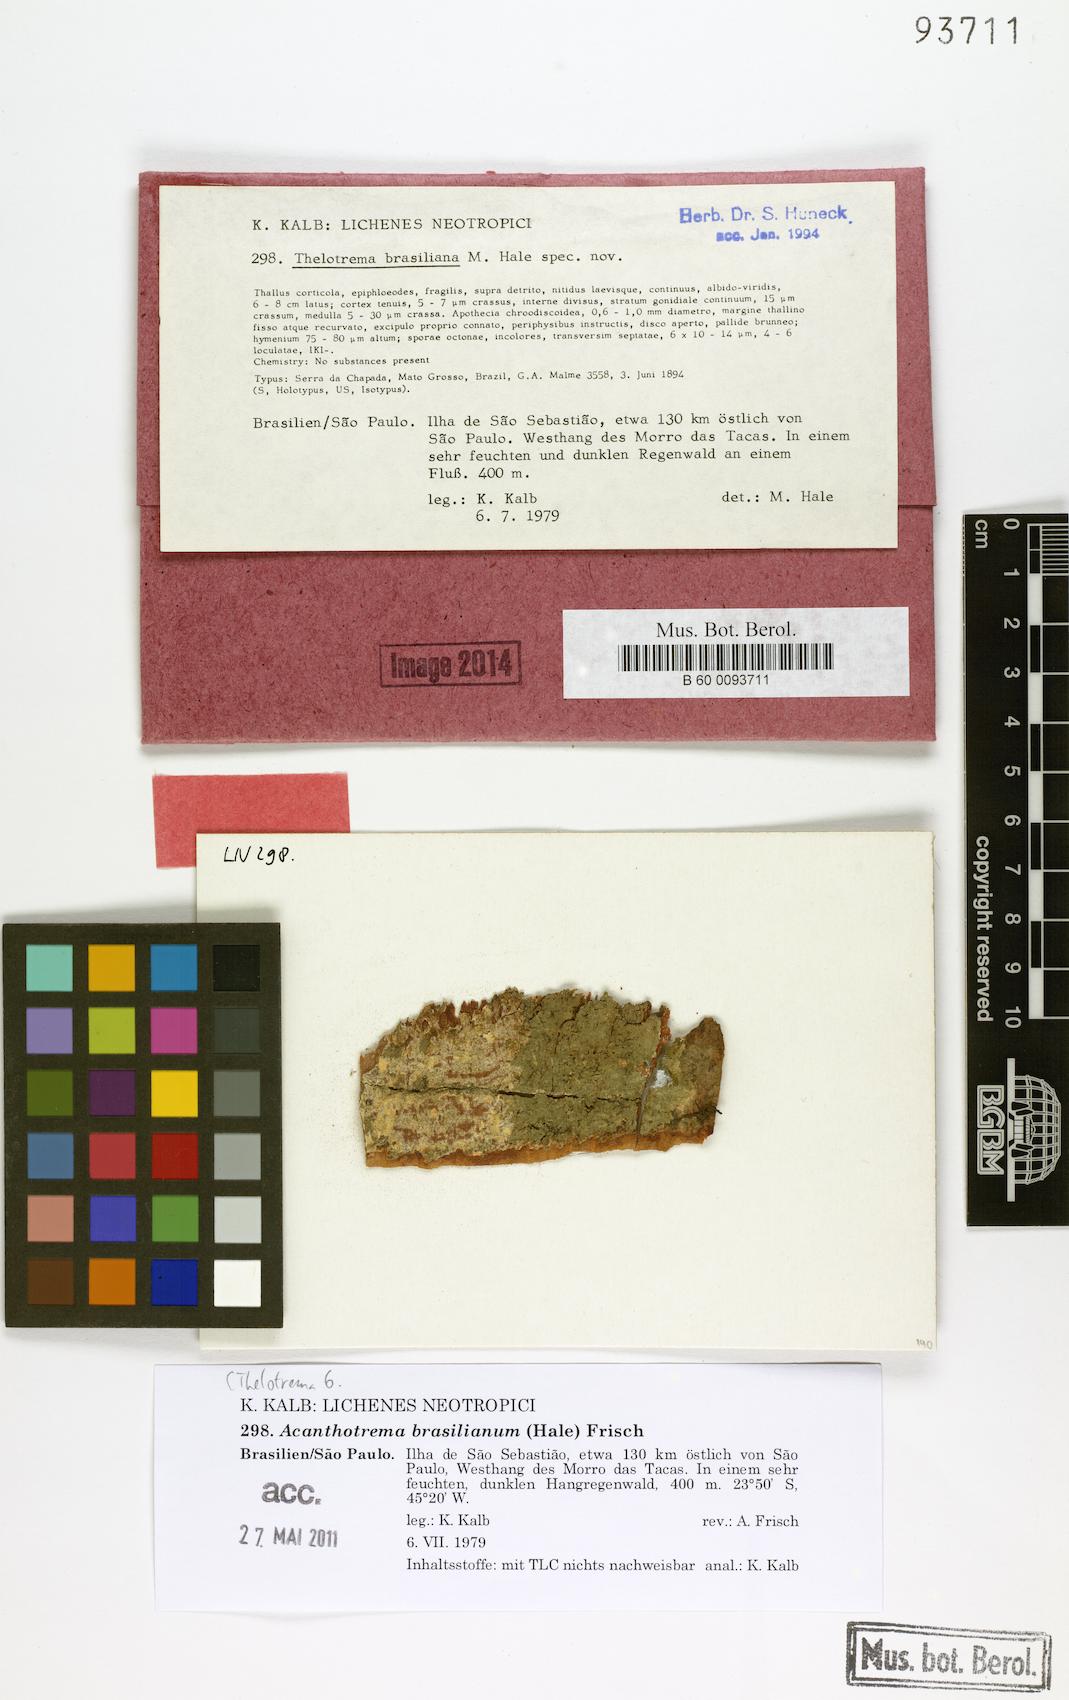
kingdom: Fungi
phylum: Ascomycota
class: Lecanoromycetes
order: Ostropales
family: Graphidaceae
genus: Acanthotrema
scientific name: Acanthotrema brasilianum
